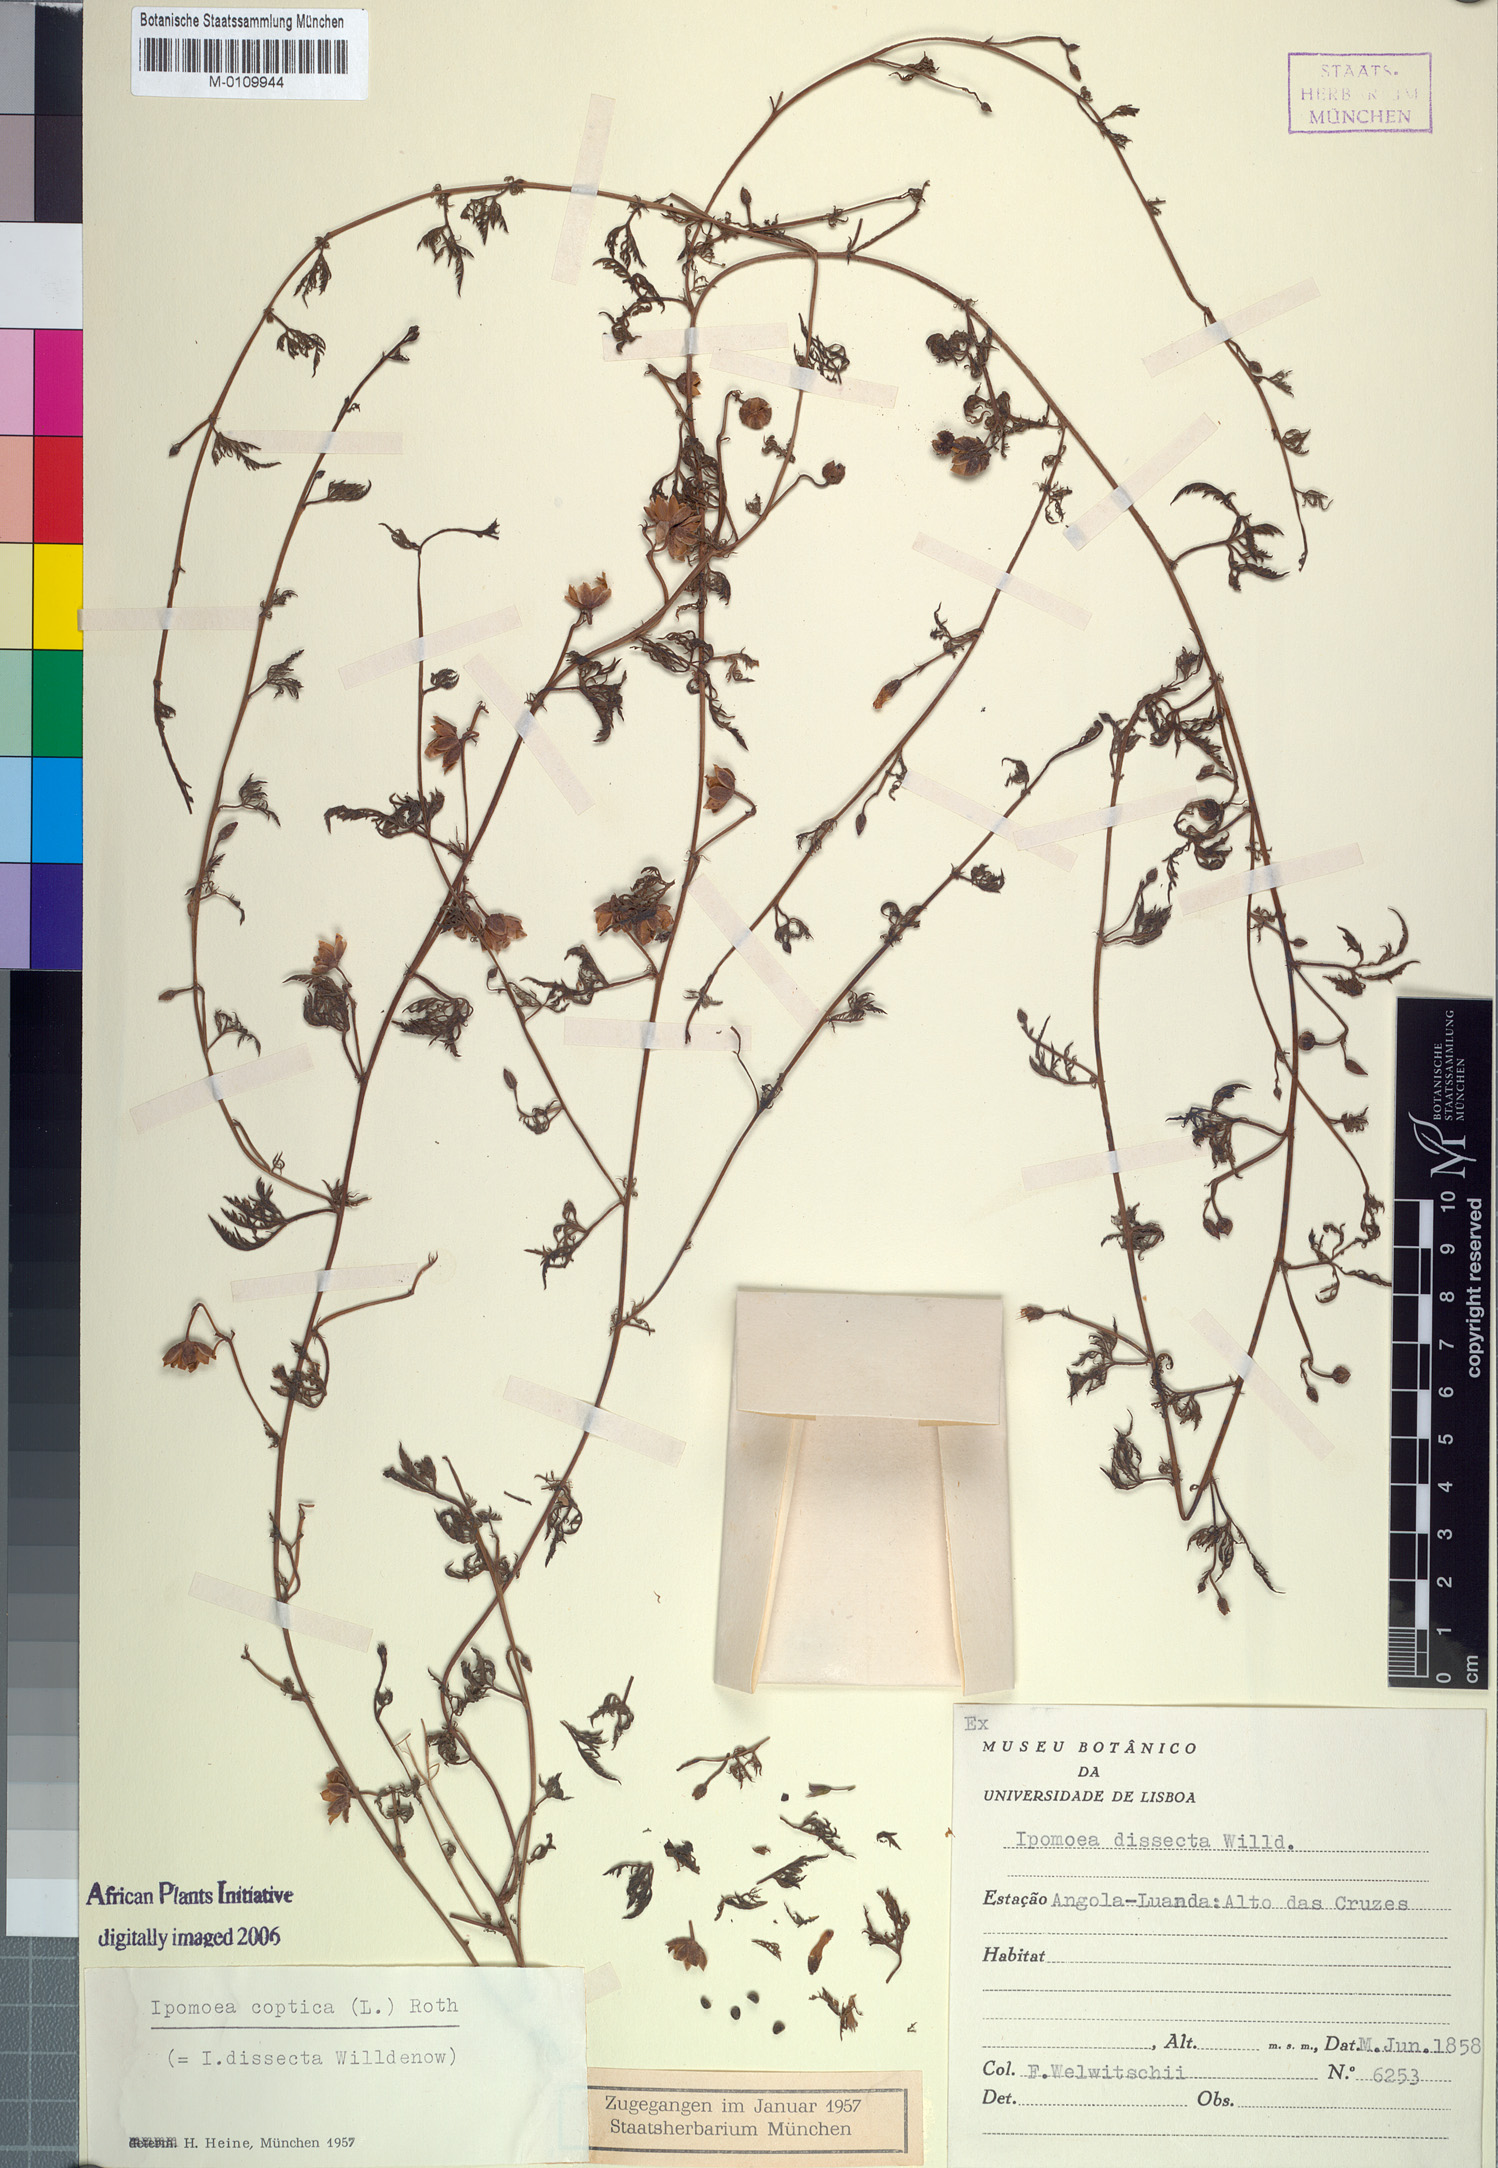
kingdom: Plantae
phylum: Tracheophyta
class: Magnoliopsida
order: Solanales
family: Convolvulaceae
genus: Ipomoea
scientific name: Ipomoea coptica
